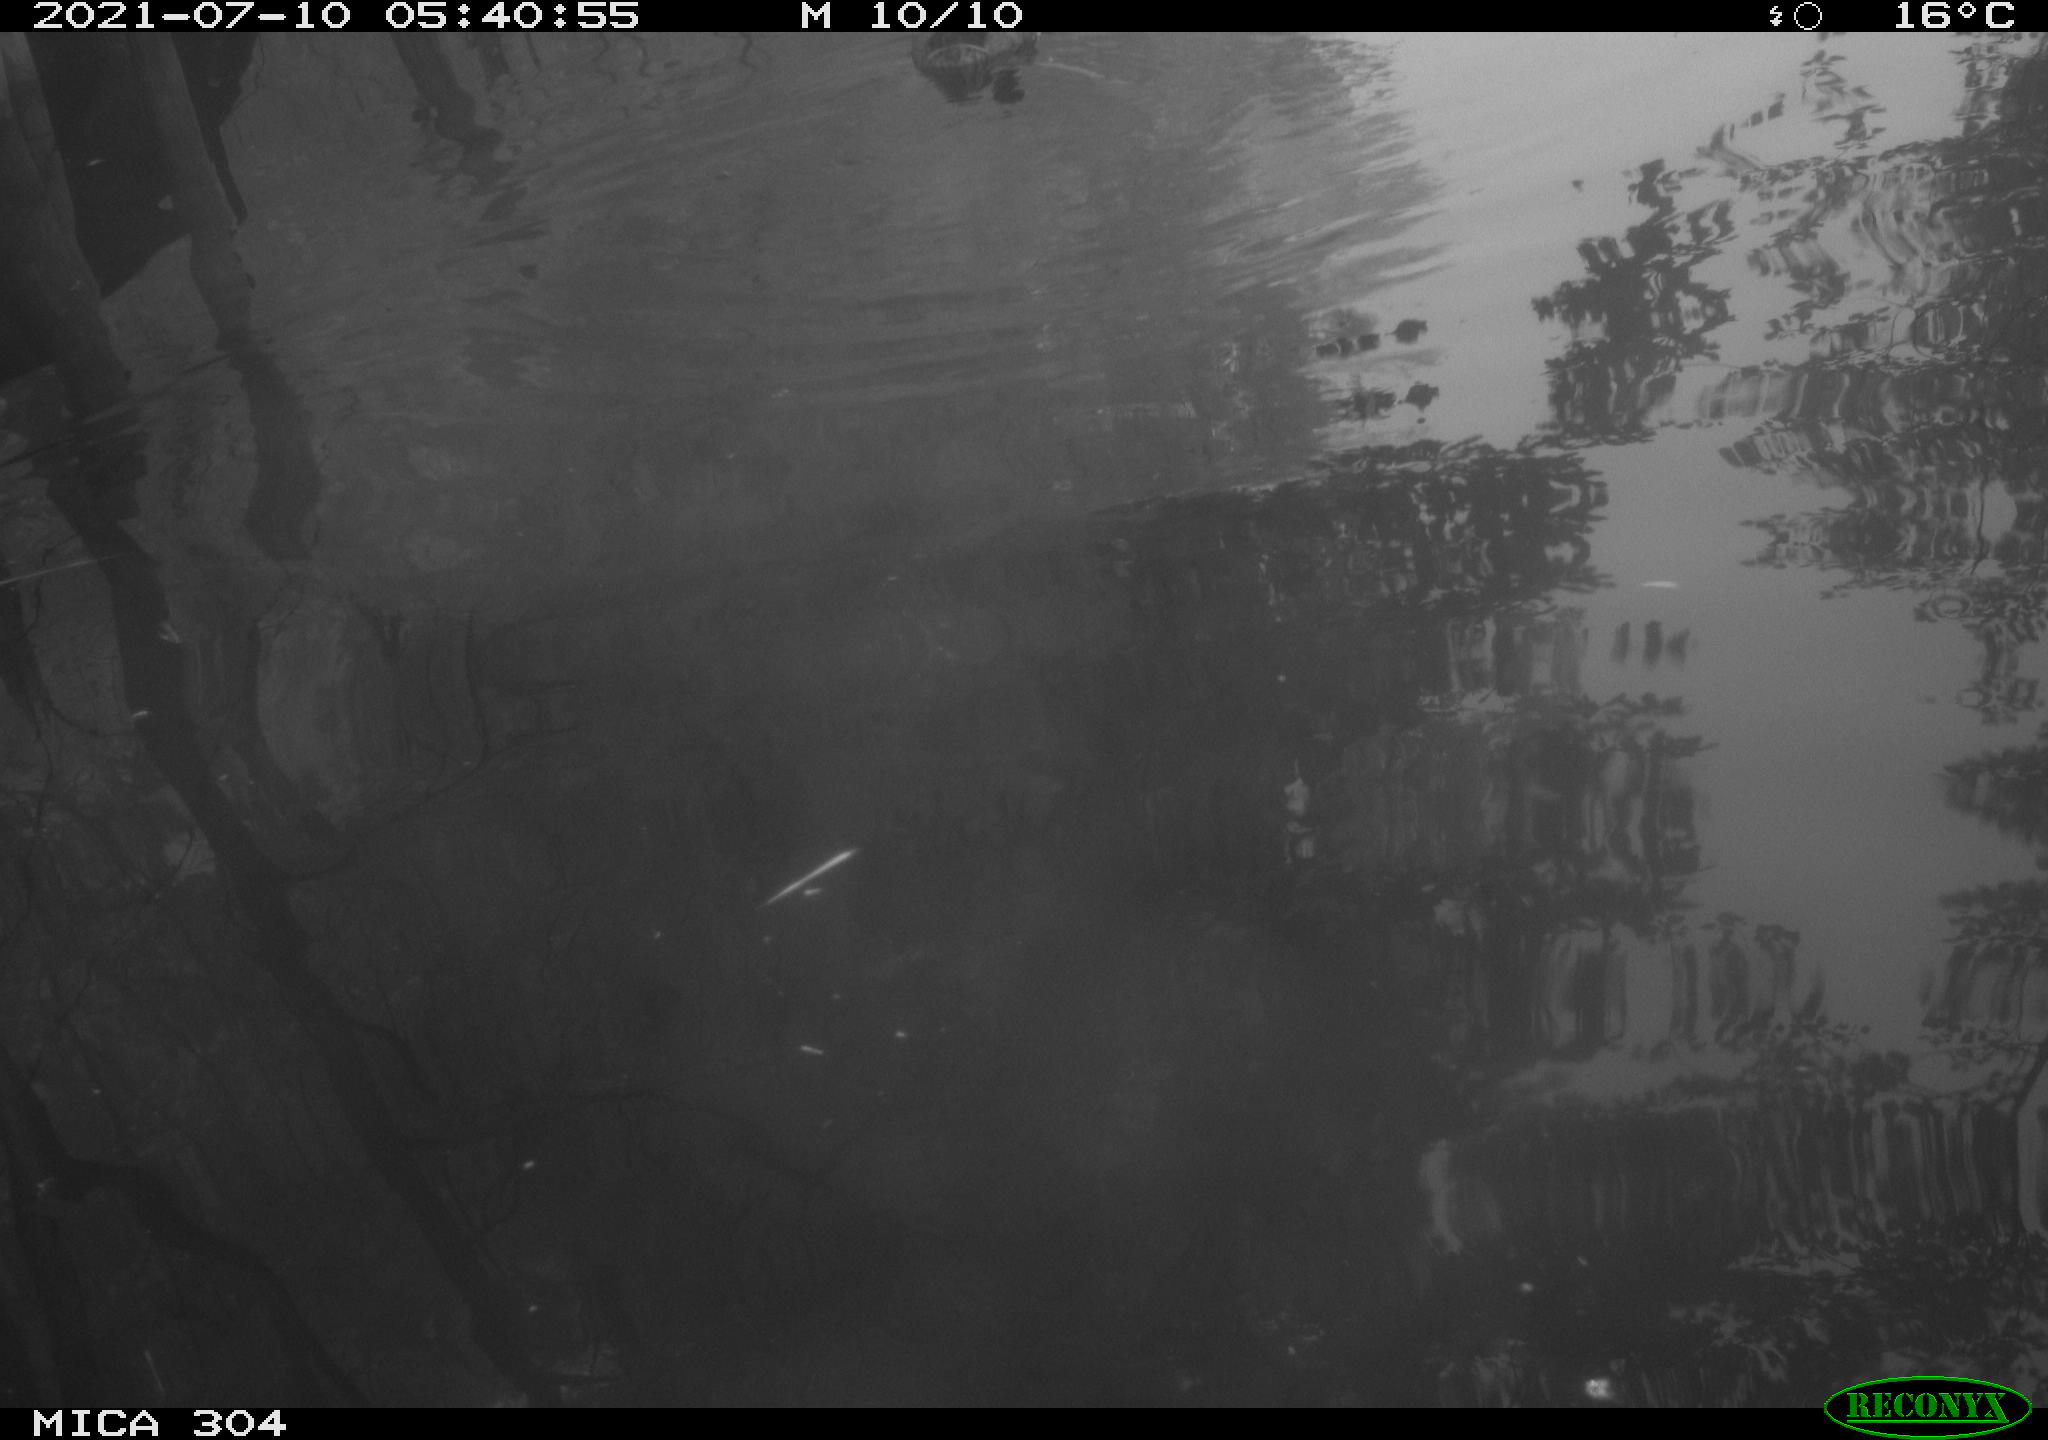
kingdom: Animalia
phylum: Chordata
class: Aves
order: Anseriformes
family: Anatidae
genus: Anas
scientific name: Anas platyrhynchos
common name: Mallard
